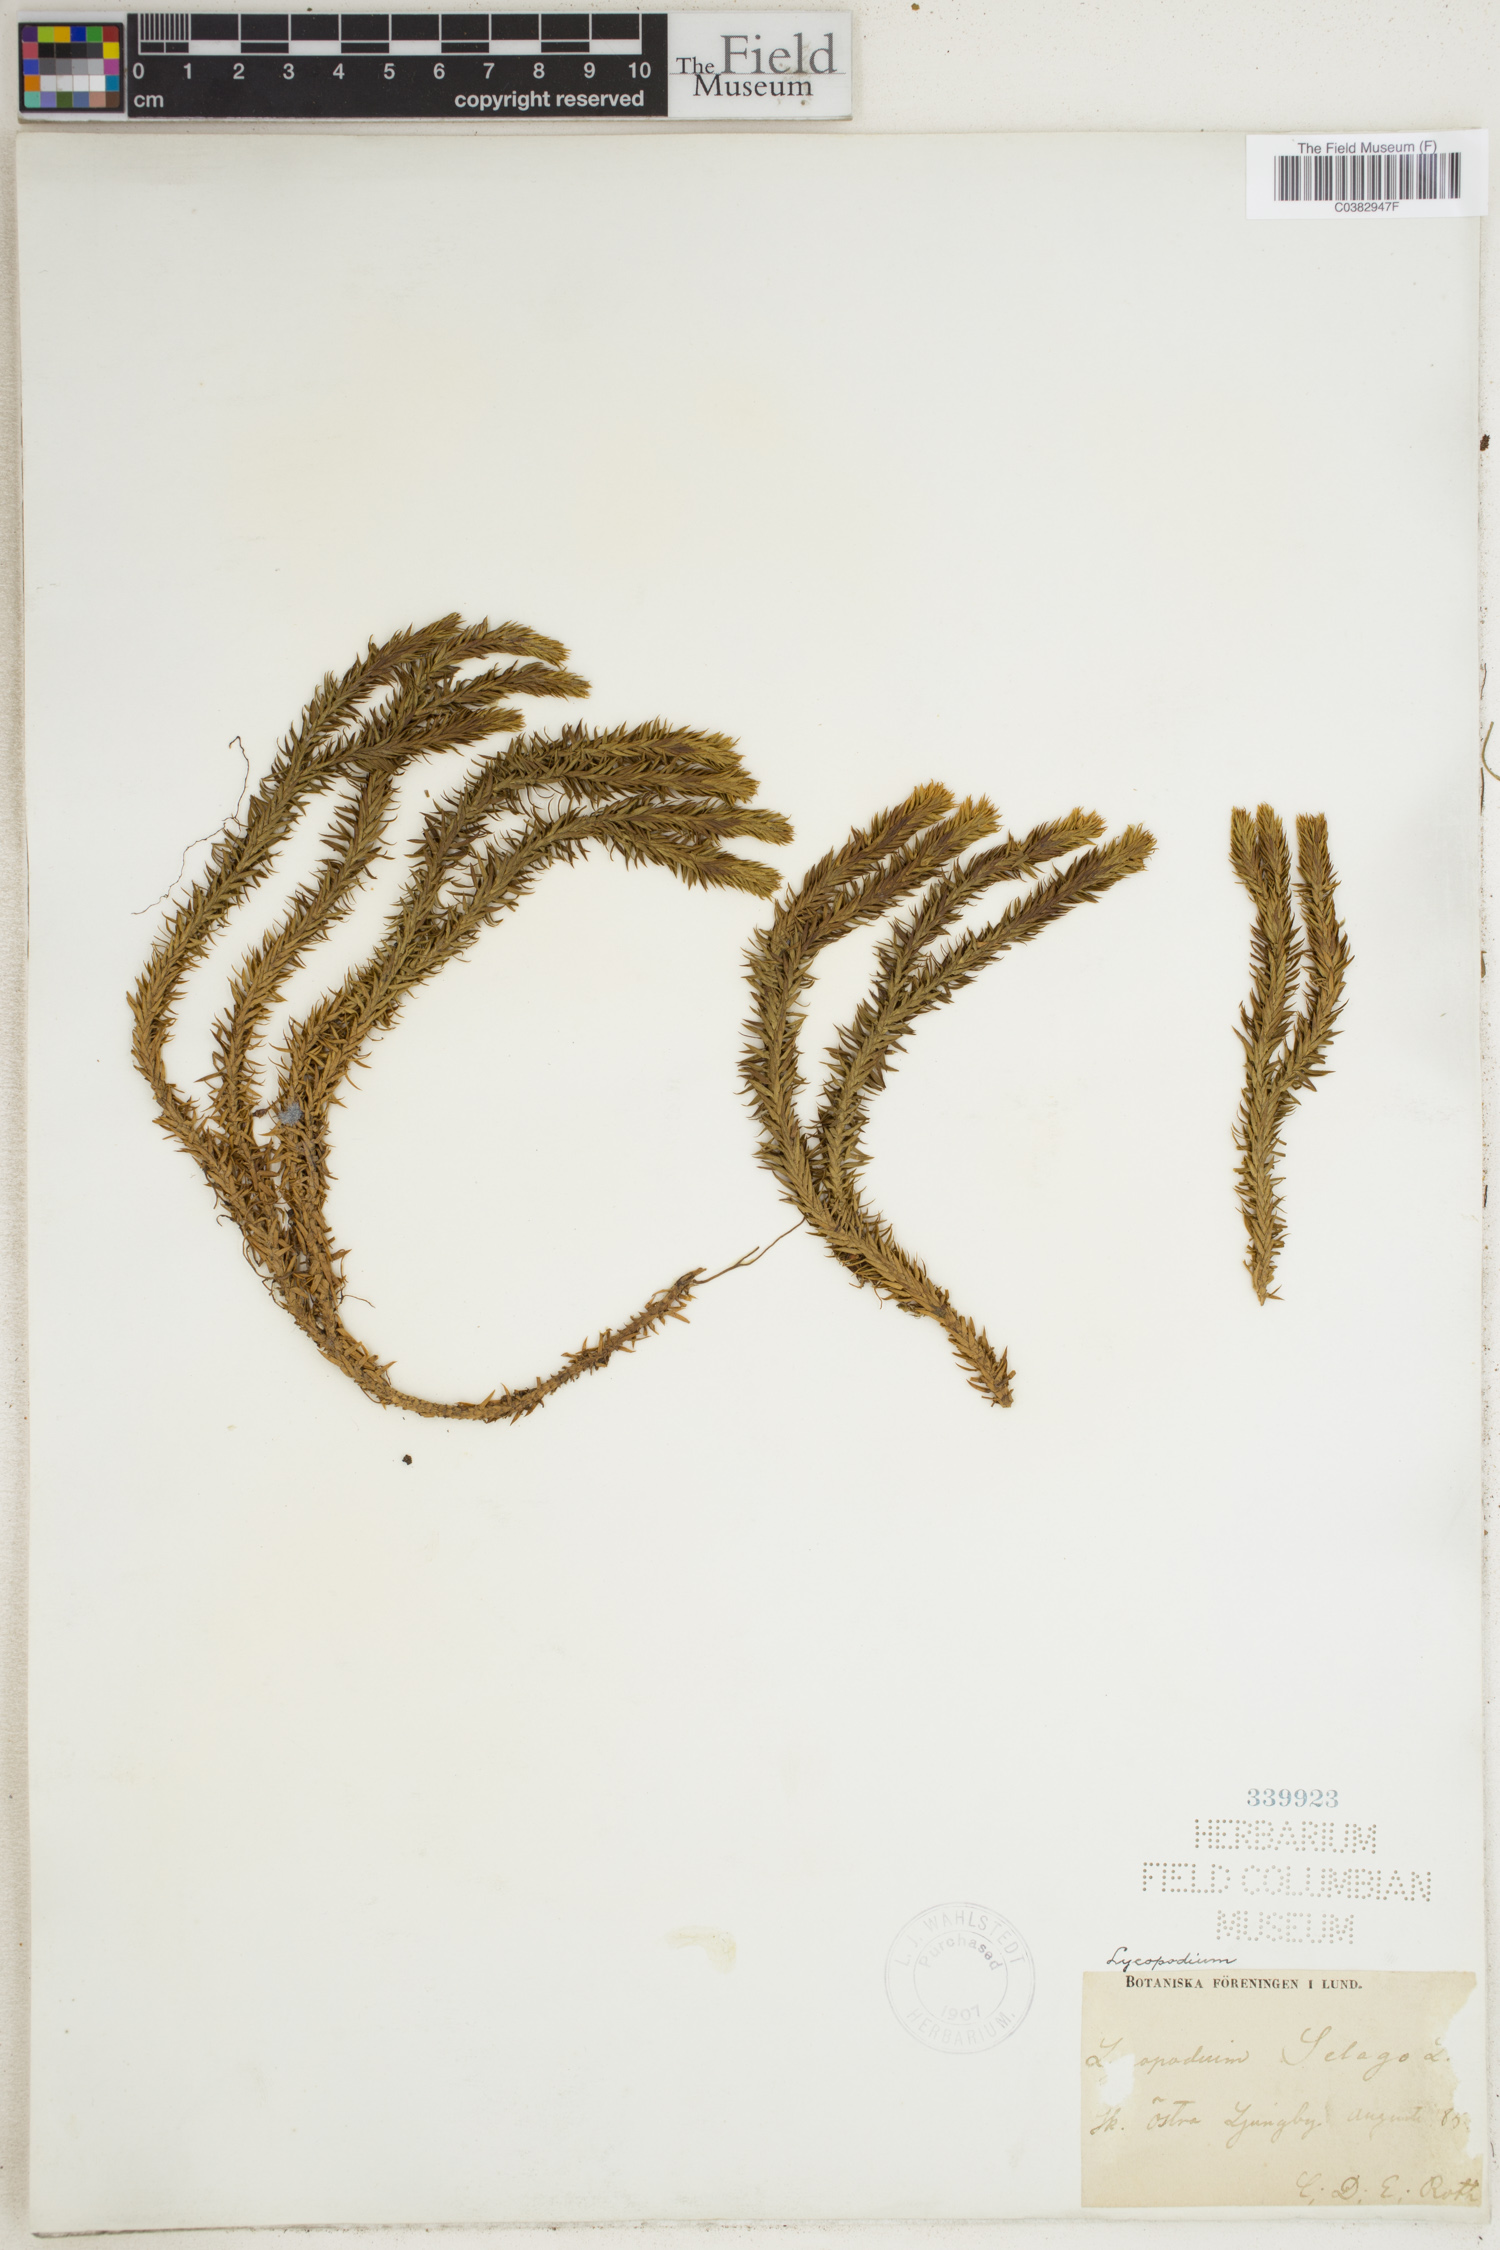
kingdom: Plantae
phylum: Tracheophyta
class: Lycopodiopsida
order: Lycopodiales
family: Lycopodiaceae
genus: Huperzia
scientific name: Huperzia selago
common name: Northern firmoss
